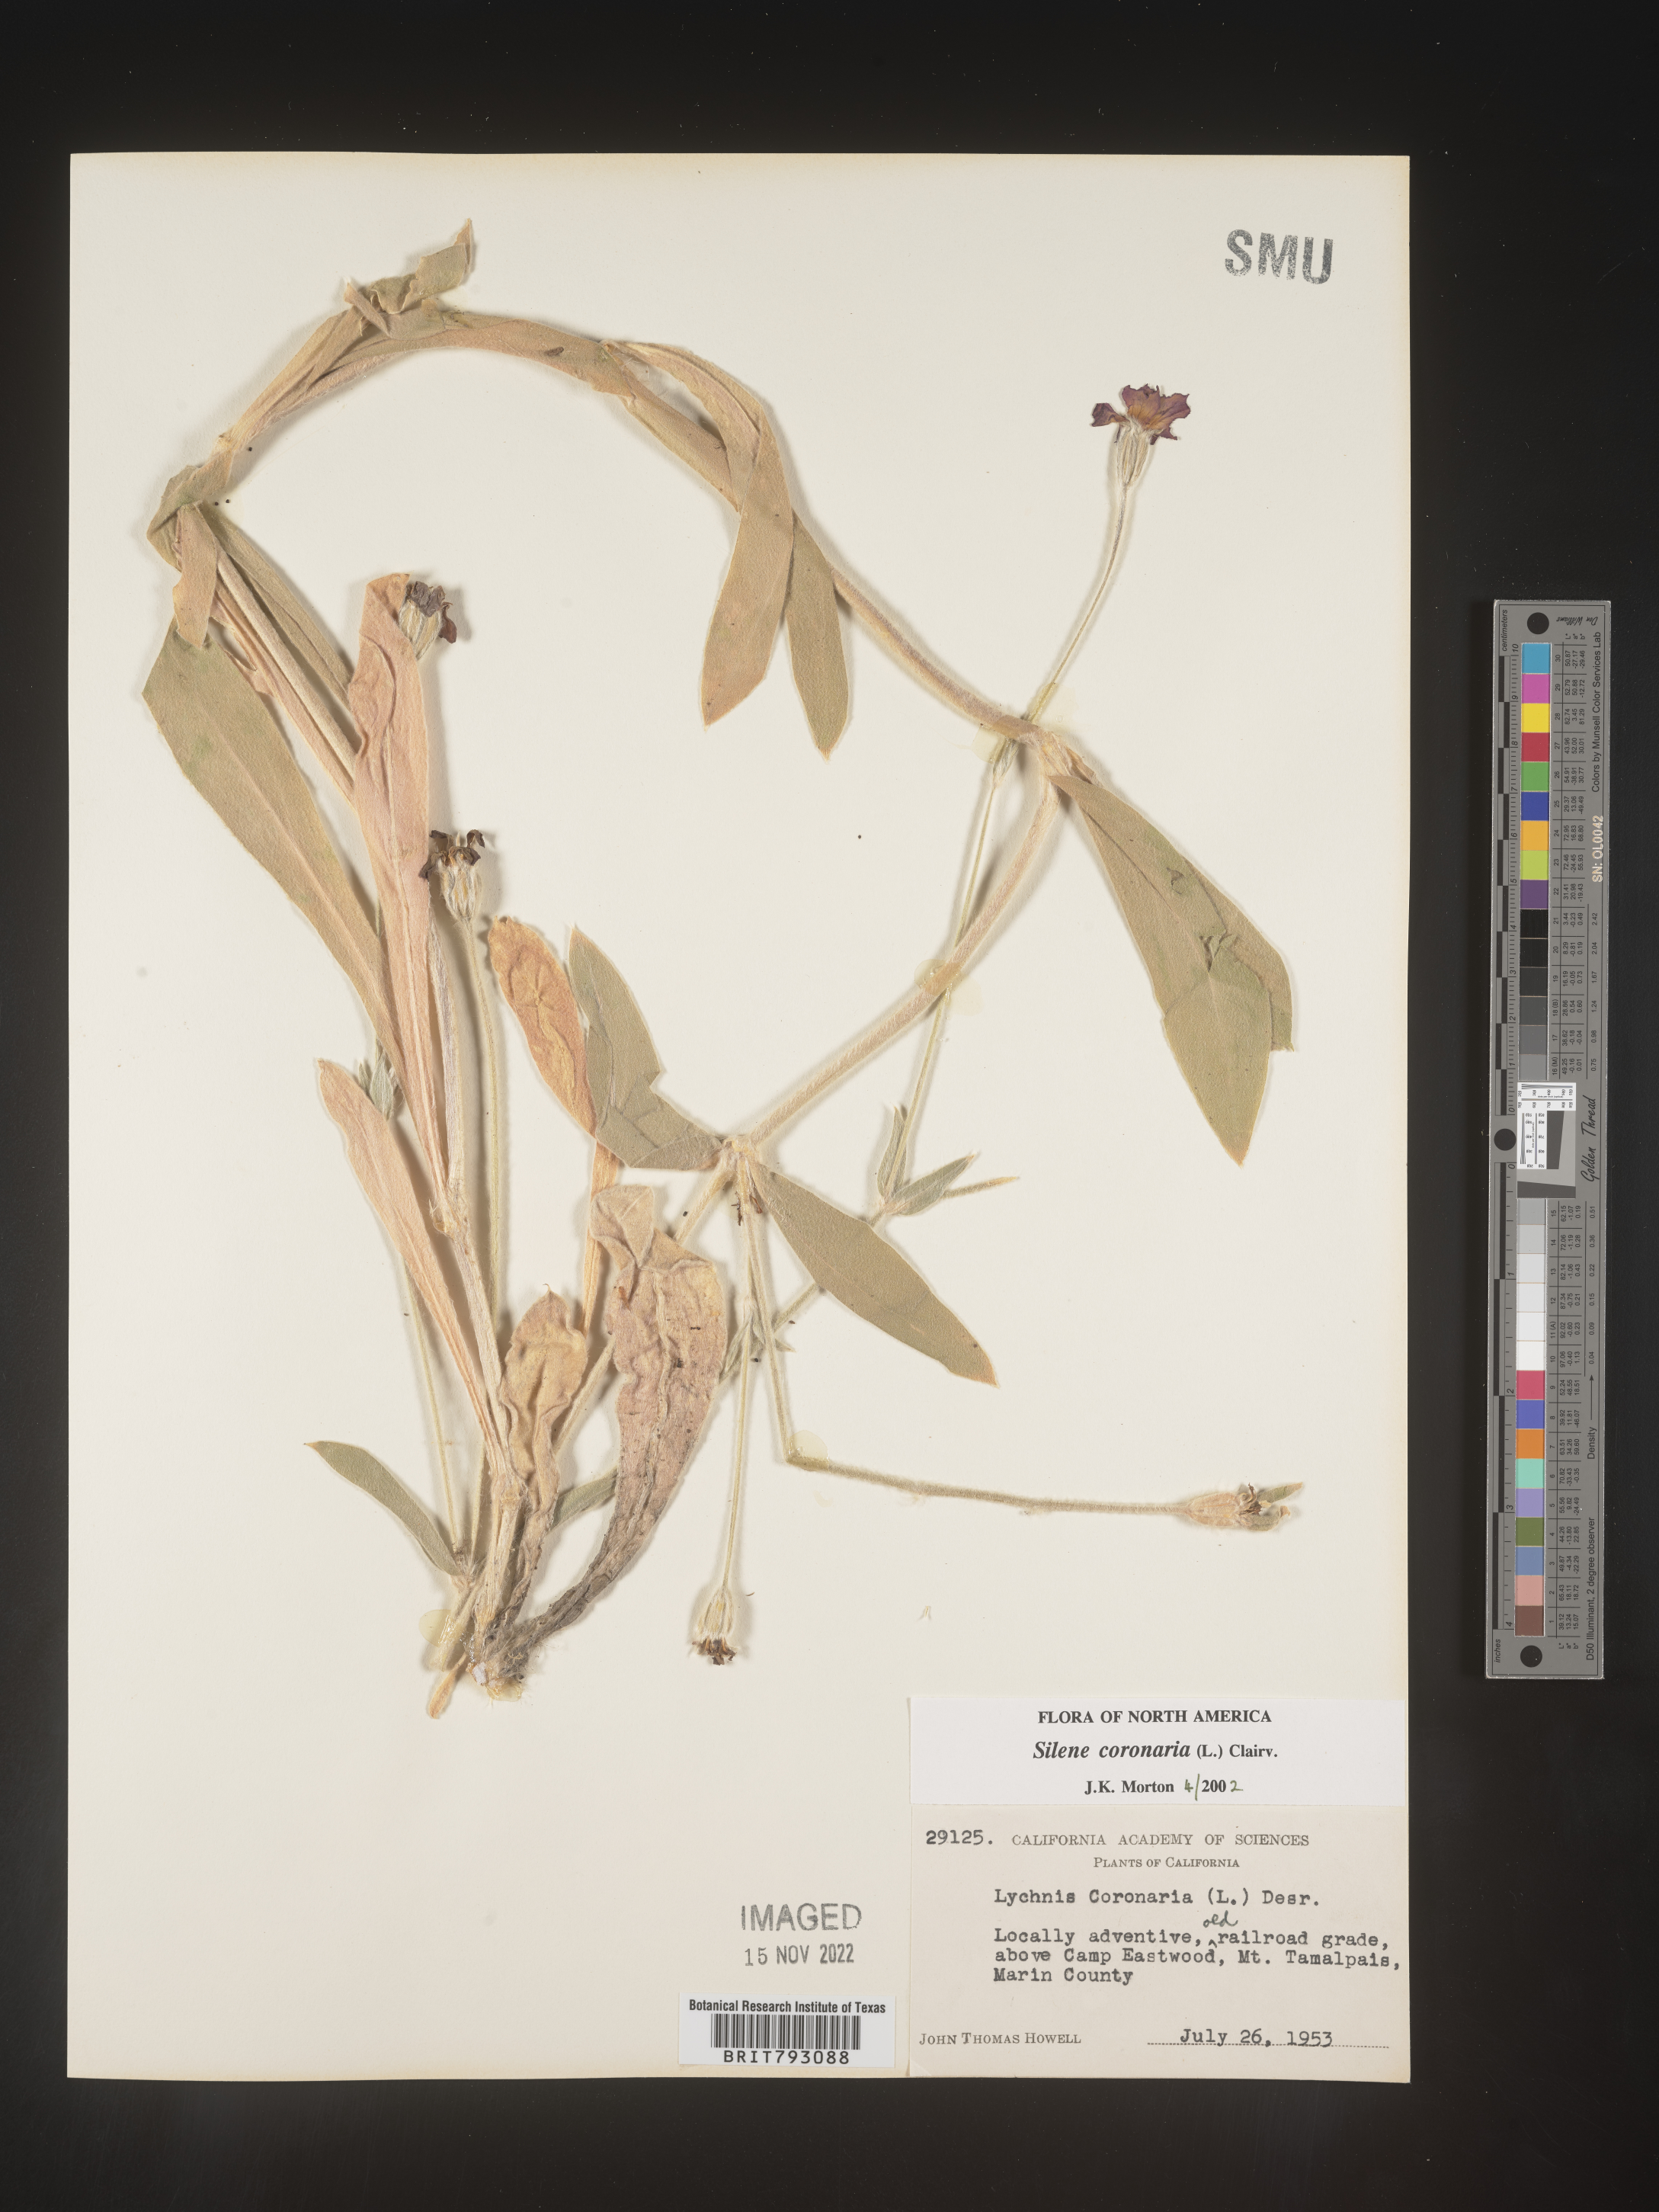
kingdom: Plantae
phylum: Tracheophyta
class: Magnoliopsida
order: Caryophyllales
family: Caryophyllaceae
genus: Silene
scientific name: Silene coronaria
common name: Rose campion
